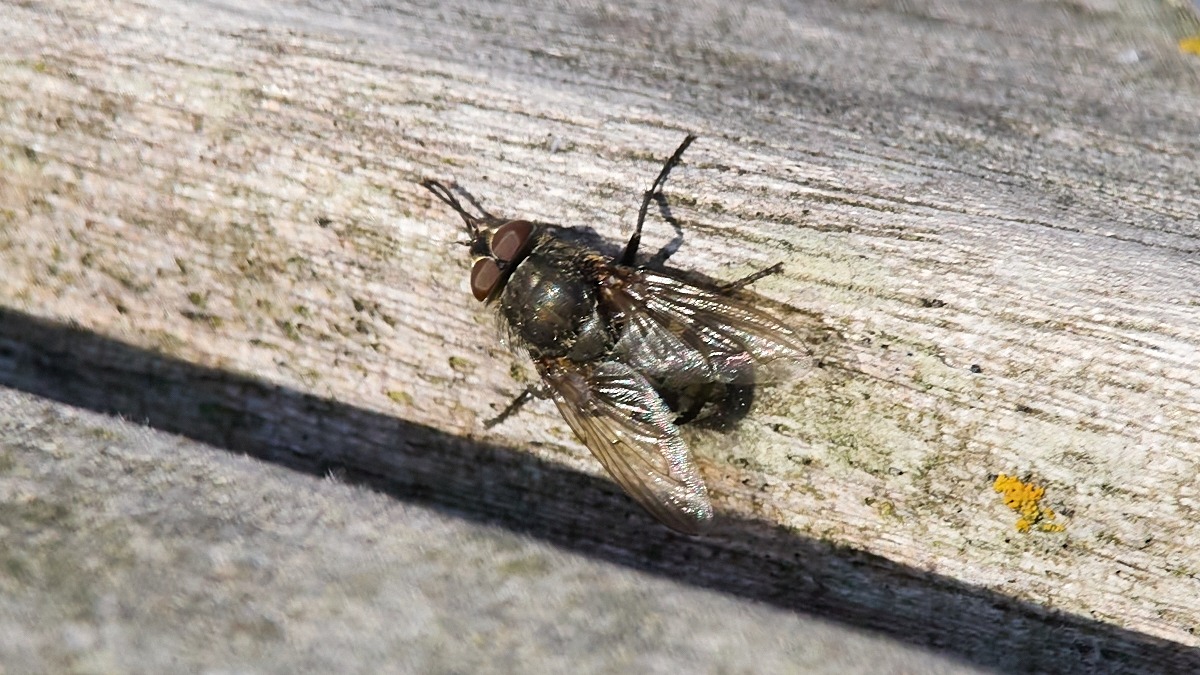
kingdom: Animalia
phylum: Arthropoda
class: Insecta
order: Diptera
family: Polleniidae
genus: Pollenia
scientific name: Pollenia
